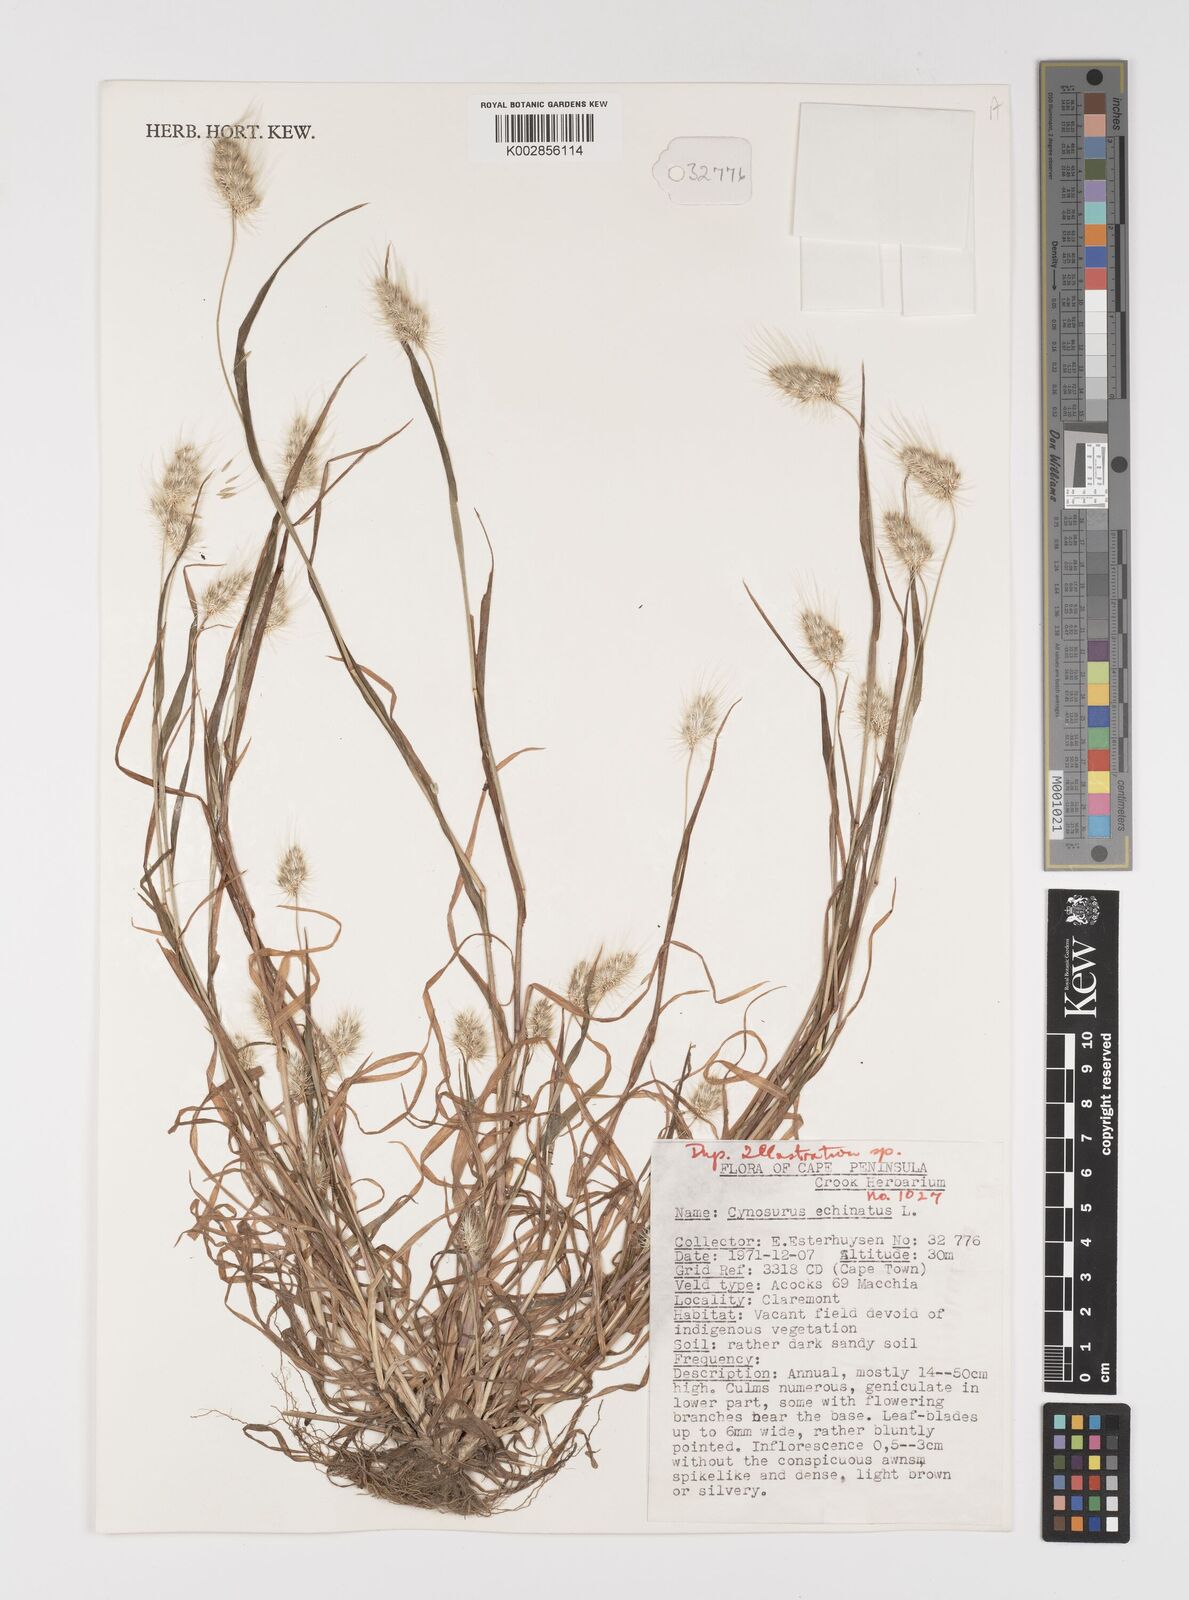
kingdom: Plantae
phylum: Tracheophyta
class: Liliopsida
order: Poales
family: Poaceae
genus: Cynosurus
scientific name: Cynosurus echinatus
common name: Rough dog's-tail
